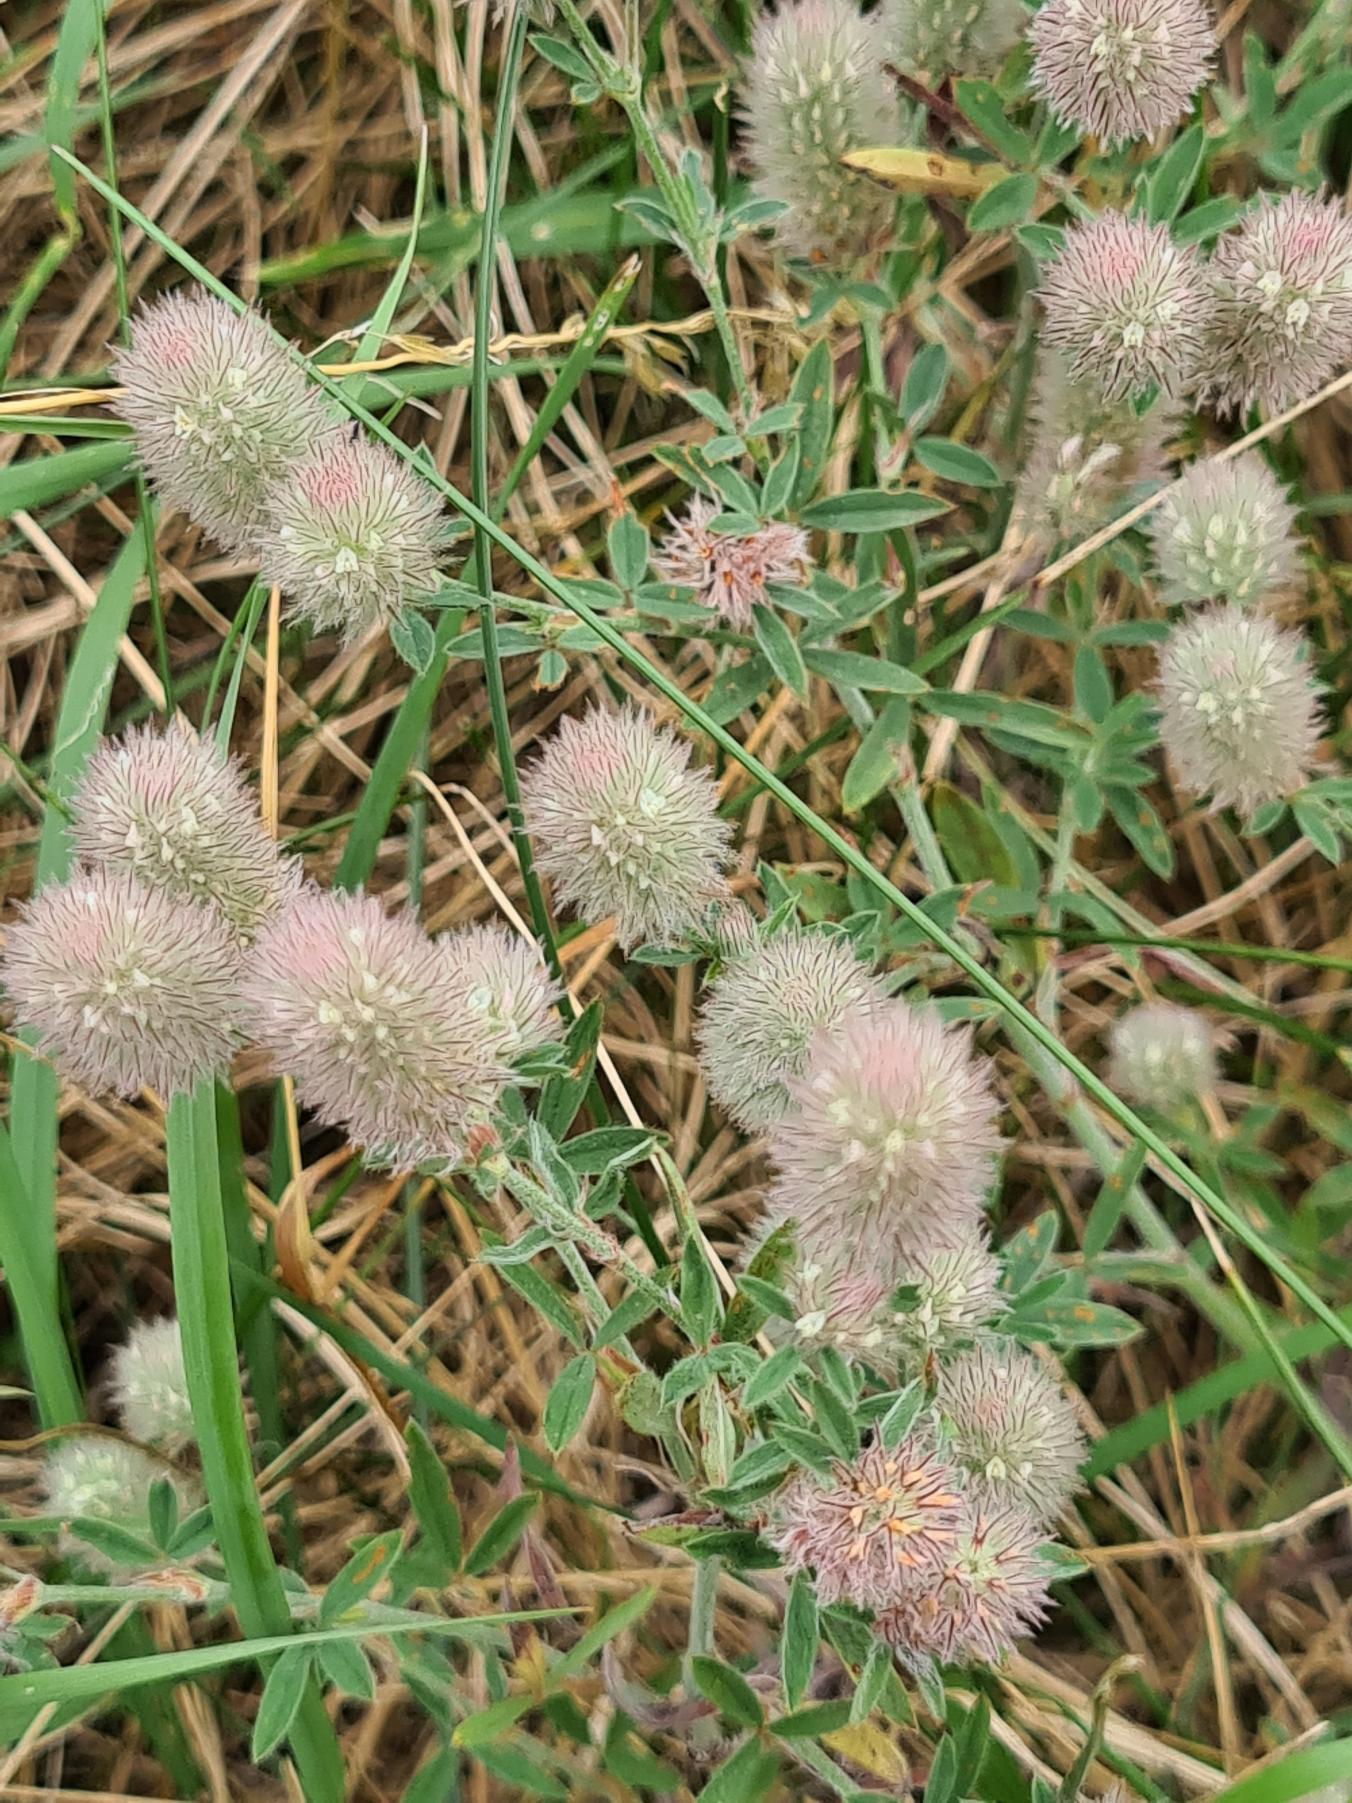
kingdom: Plantae
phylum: Tracheophyta
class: Magnoliopsida
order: Fabales
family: Fabaceae
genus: Trifolium
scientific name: Trifolium arvense
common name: Hare-kløver
